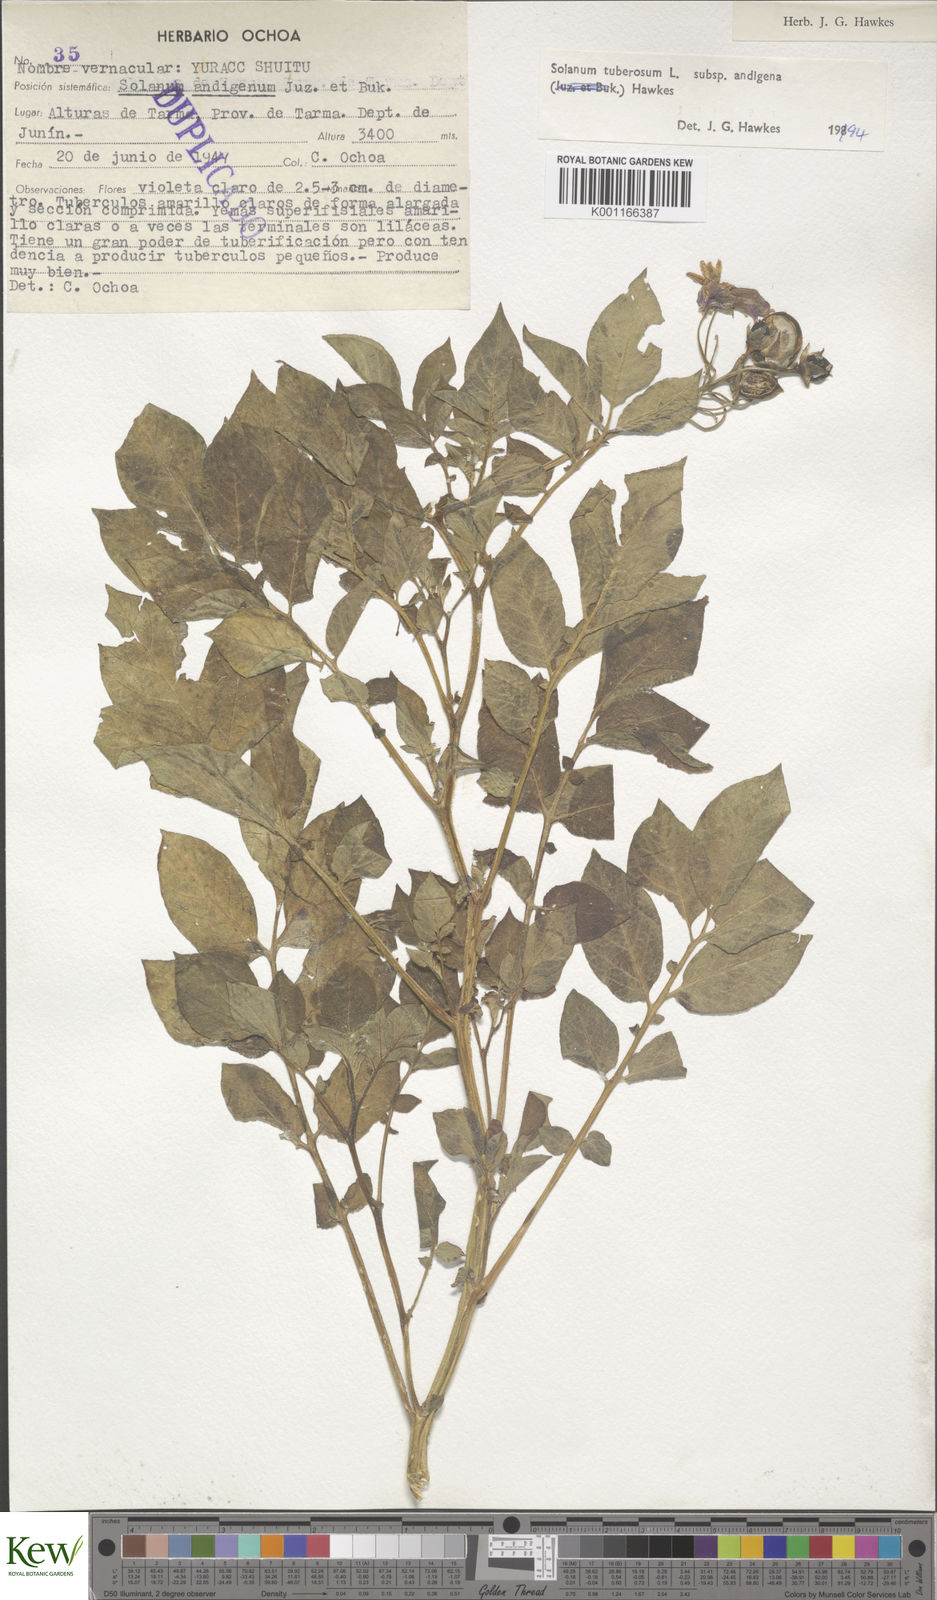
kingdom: Plantae
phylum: Tracheophyta
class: Magnoliopsida
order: Solanales
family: Solanaceae
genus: Solanum
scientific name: Solanum tuberosum
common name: Potato
